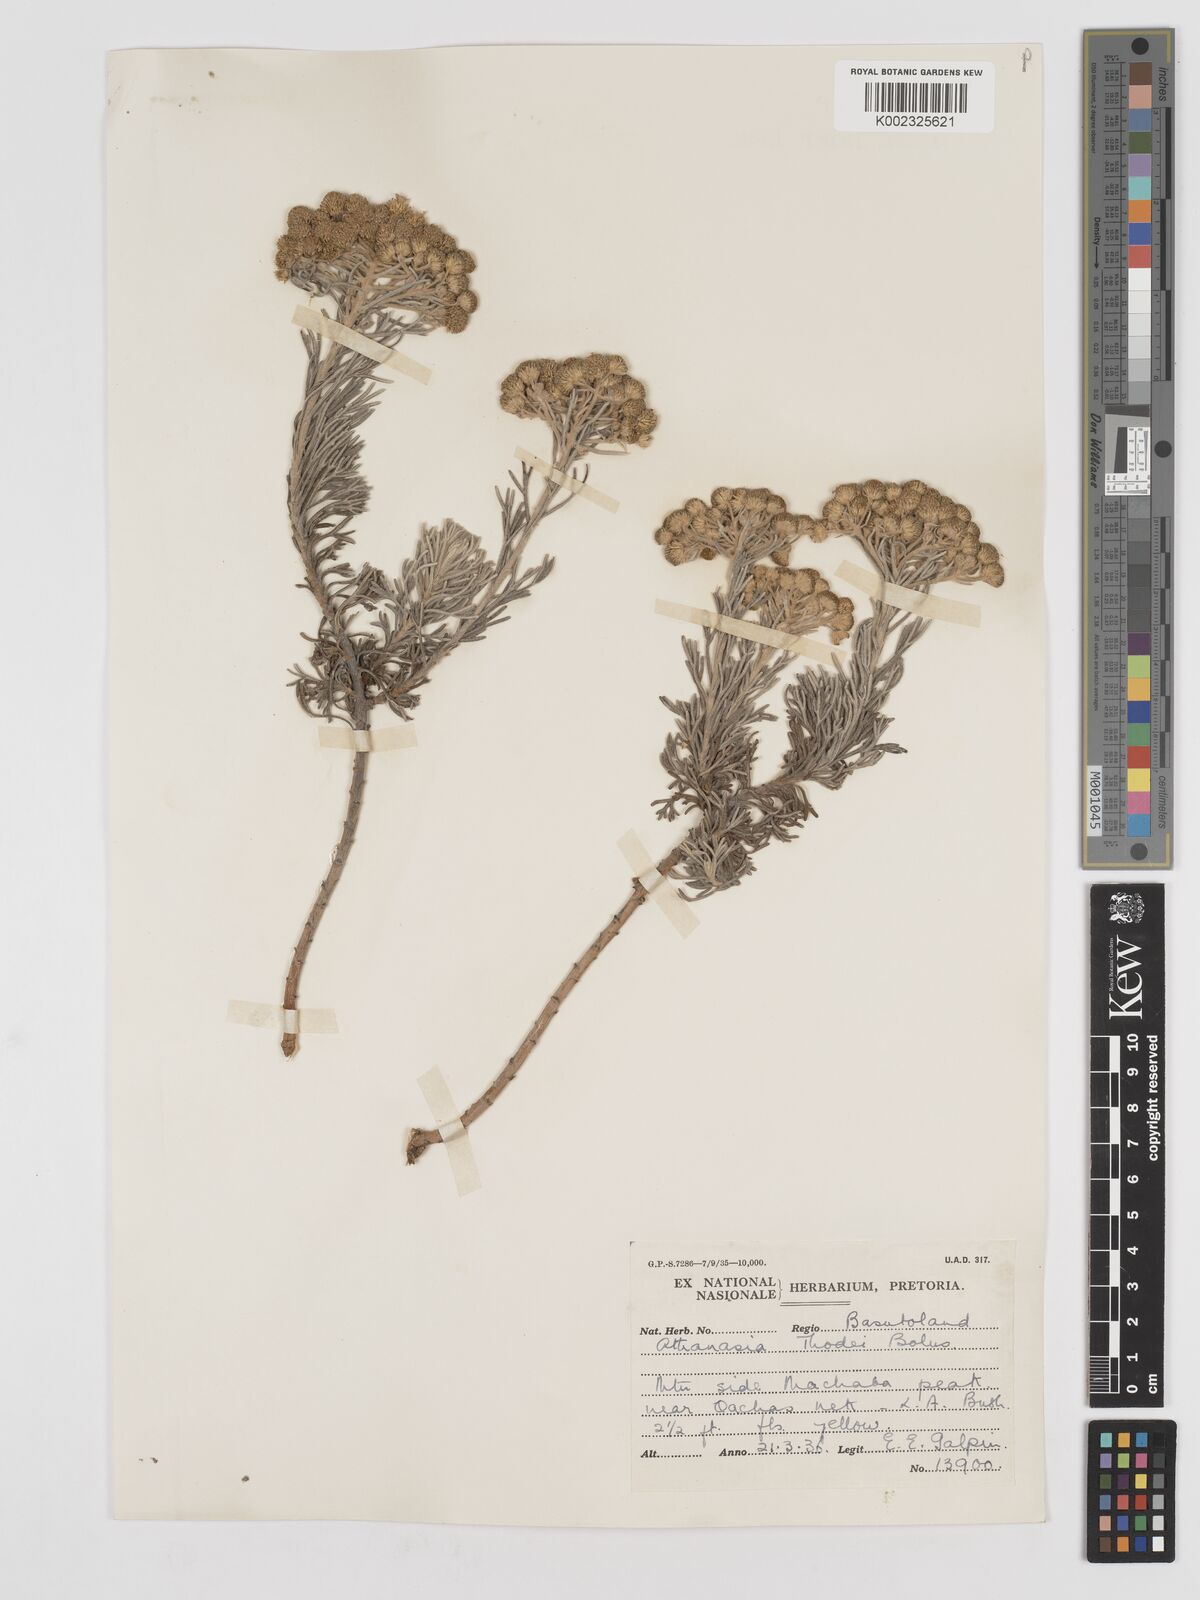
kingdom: Plantae
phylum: Tracheophyta
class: Magnoliopsida
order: Asterales
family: Asteraceae
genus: Inulanthera
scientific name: Inulanthera thodei
